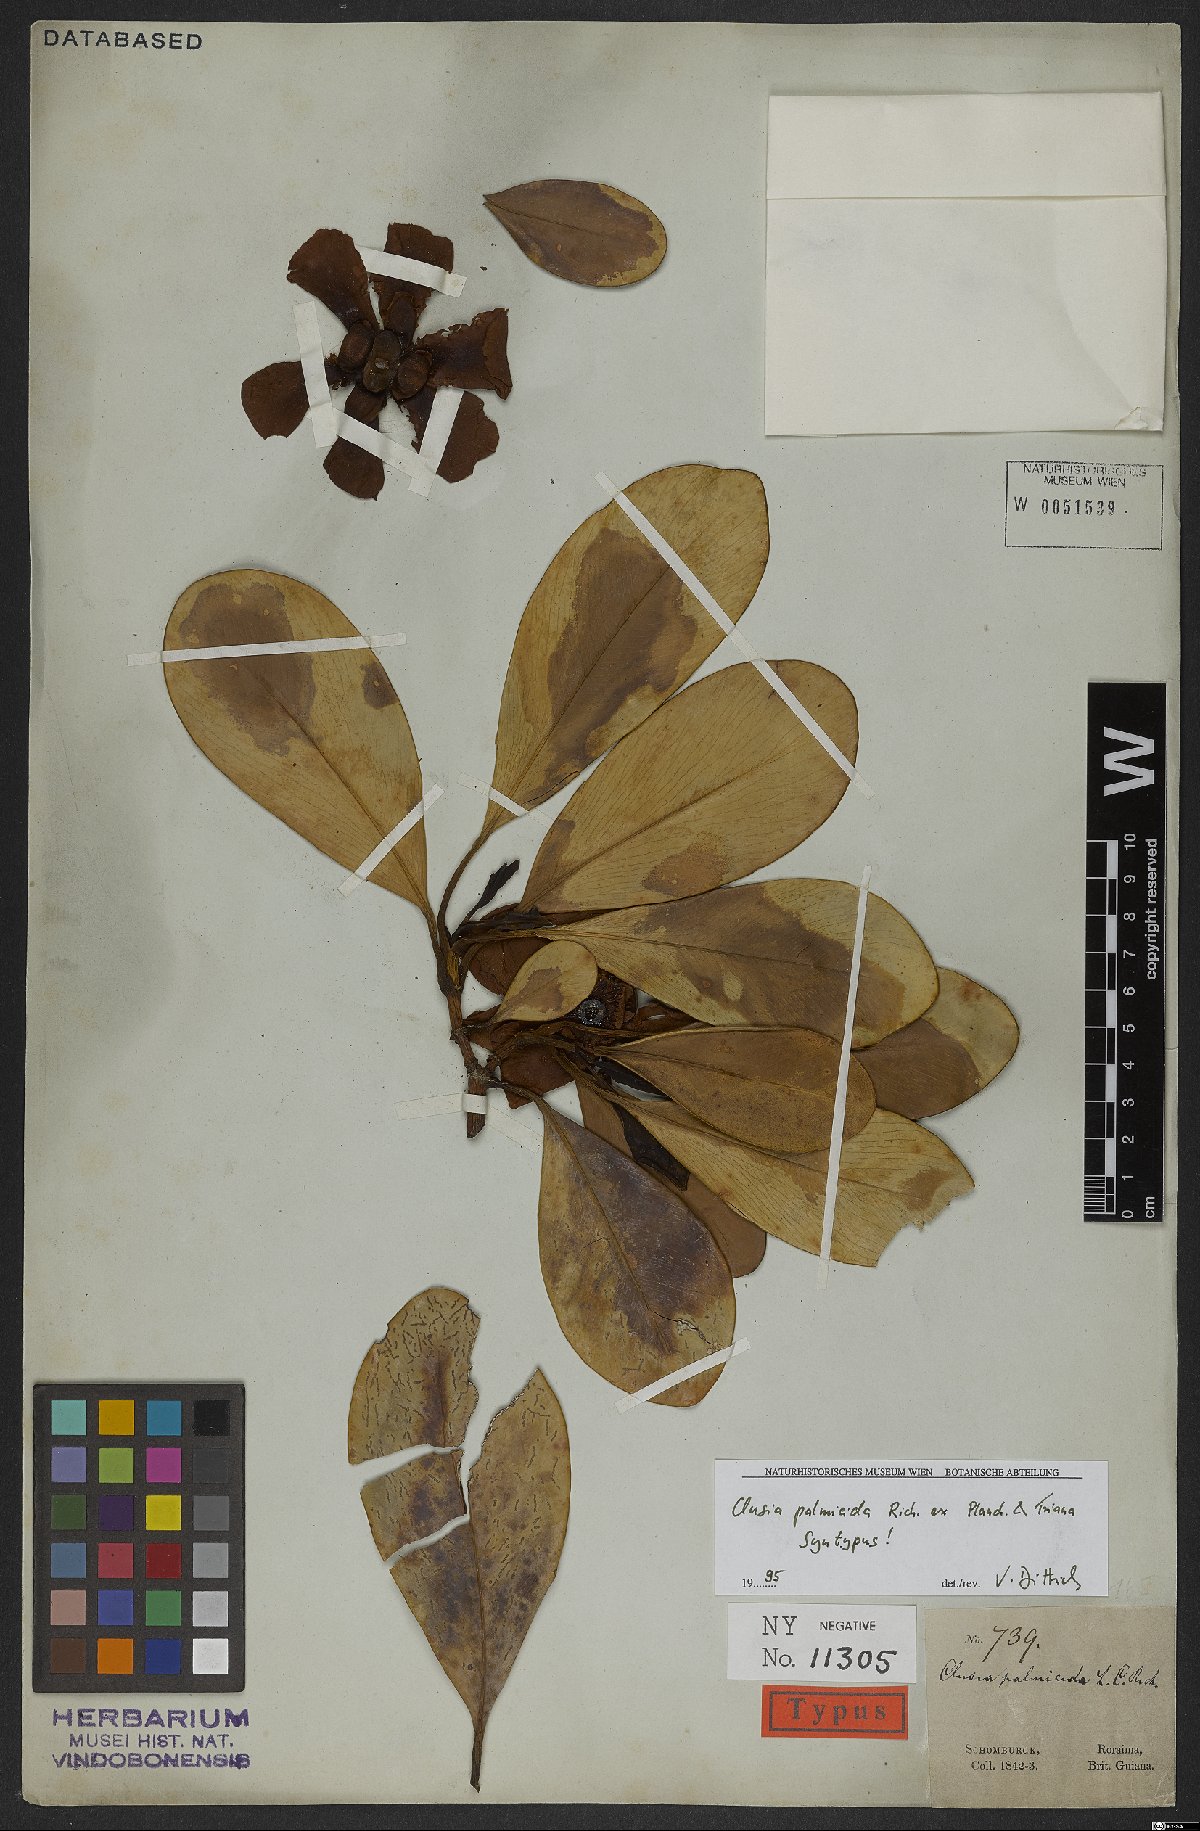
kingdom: Plantae
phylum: Tracheophyta
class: Magnoliopsida
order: Malpighiales
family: Clusiaceae
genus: Clusia
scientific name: Clusia palmicida
